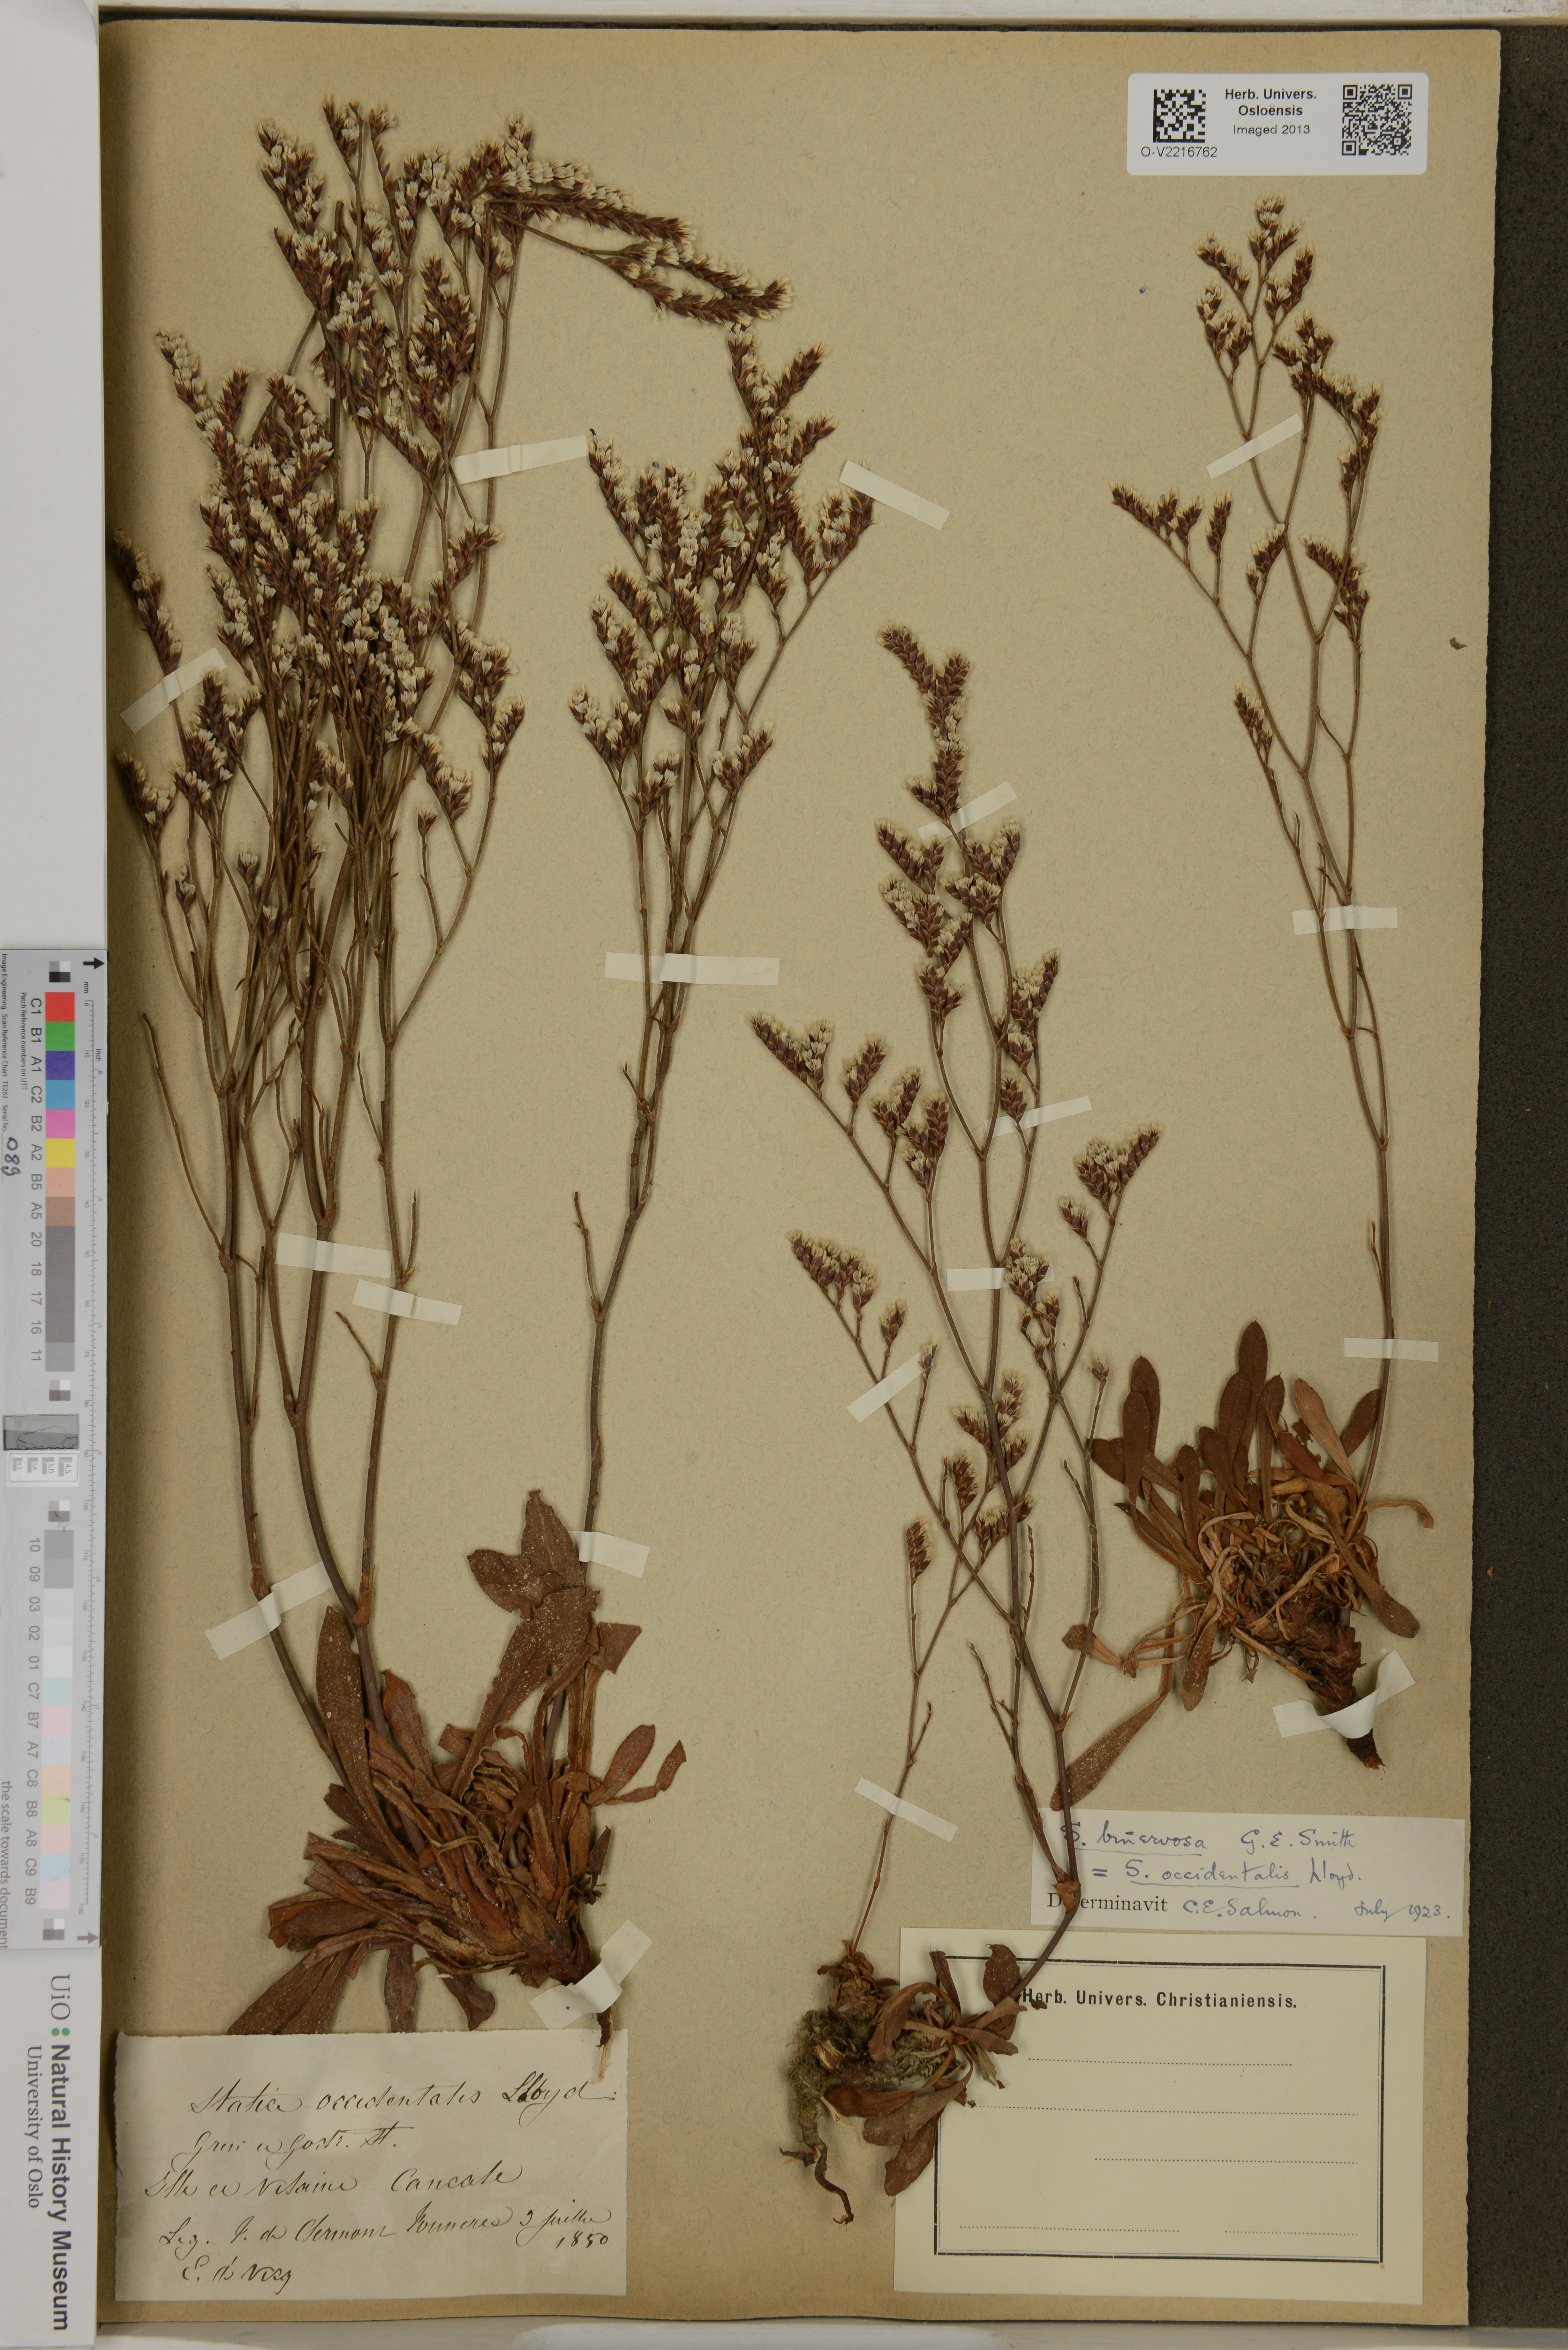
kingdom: Plantae
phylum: Tracheophyta
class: Magnoliopsida
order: Caryophyllales
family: Plumbaginaceae
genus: Limonium
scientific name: Limonium occidentale
